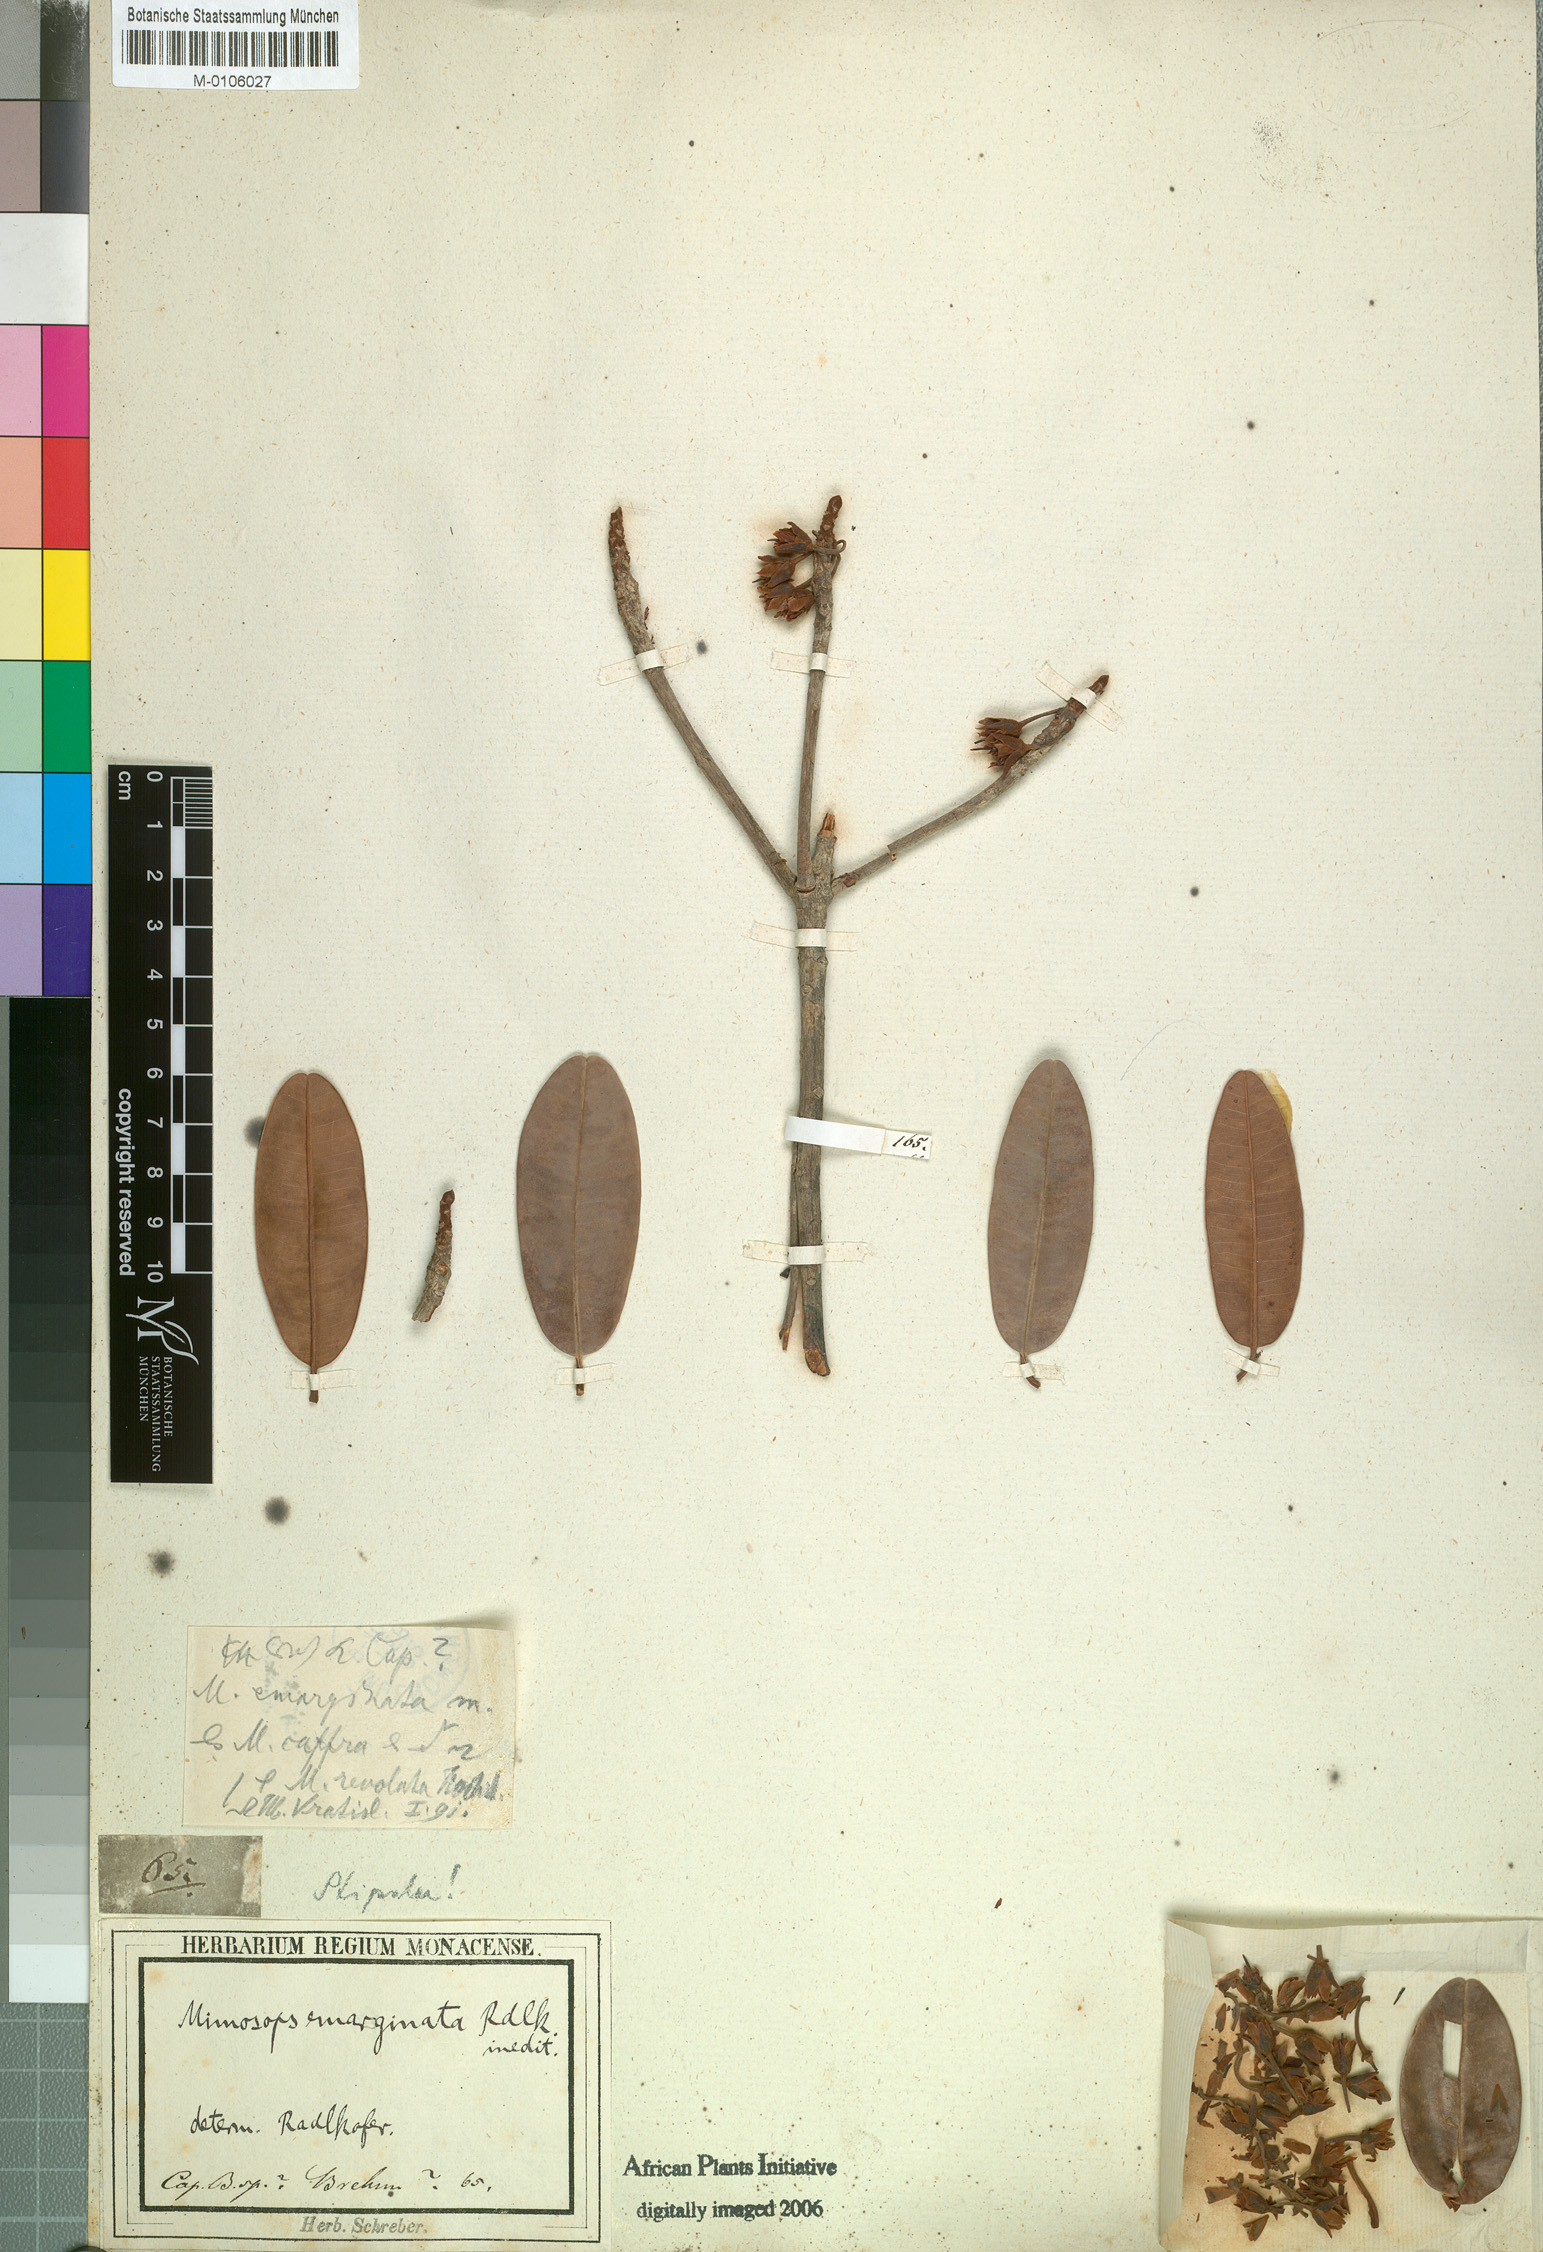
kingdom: Plantae
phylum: Tracheophyta
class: Magnoliopsida
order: Ericales
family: Sapotaceae
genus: Manilkara
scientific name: Manilkara jaimiqui
